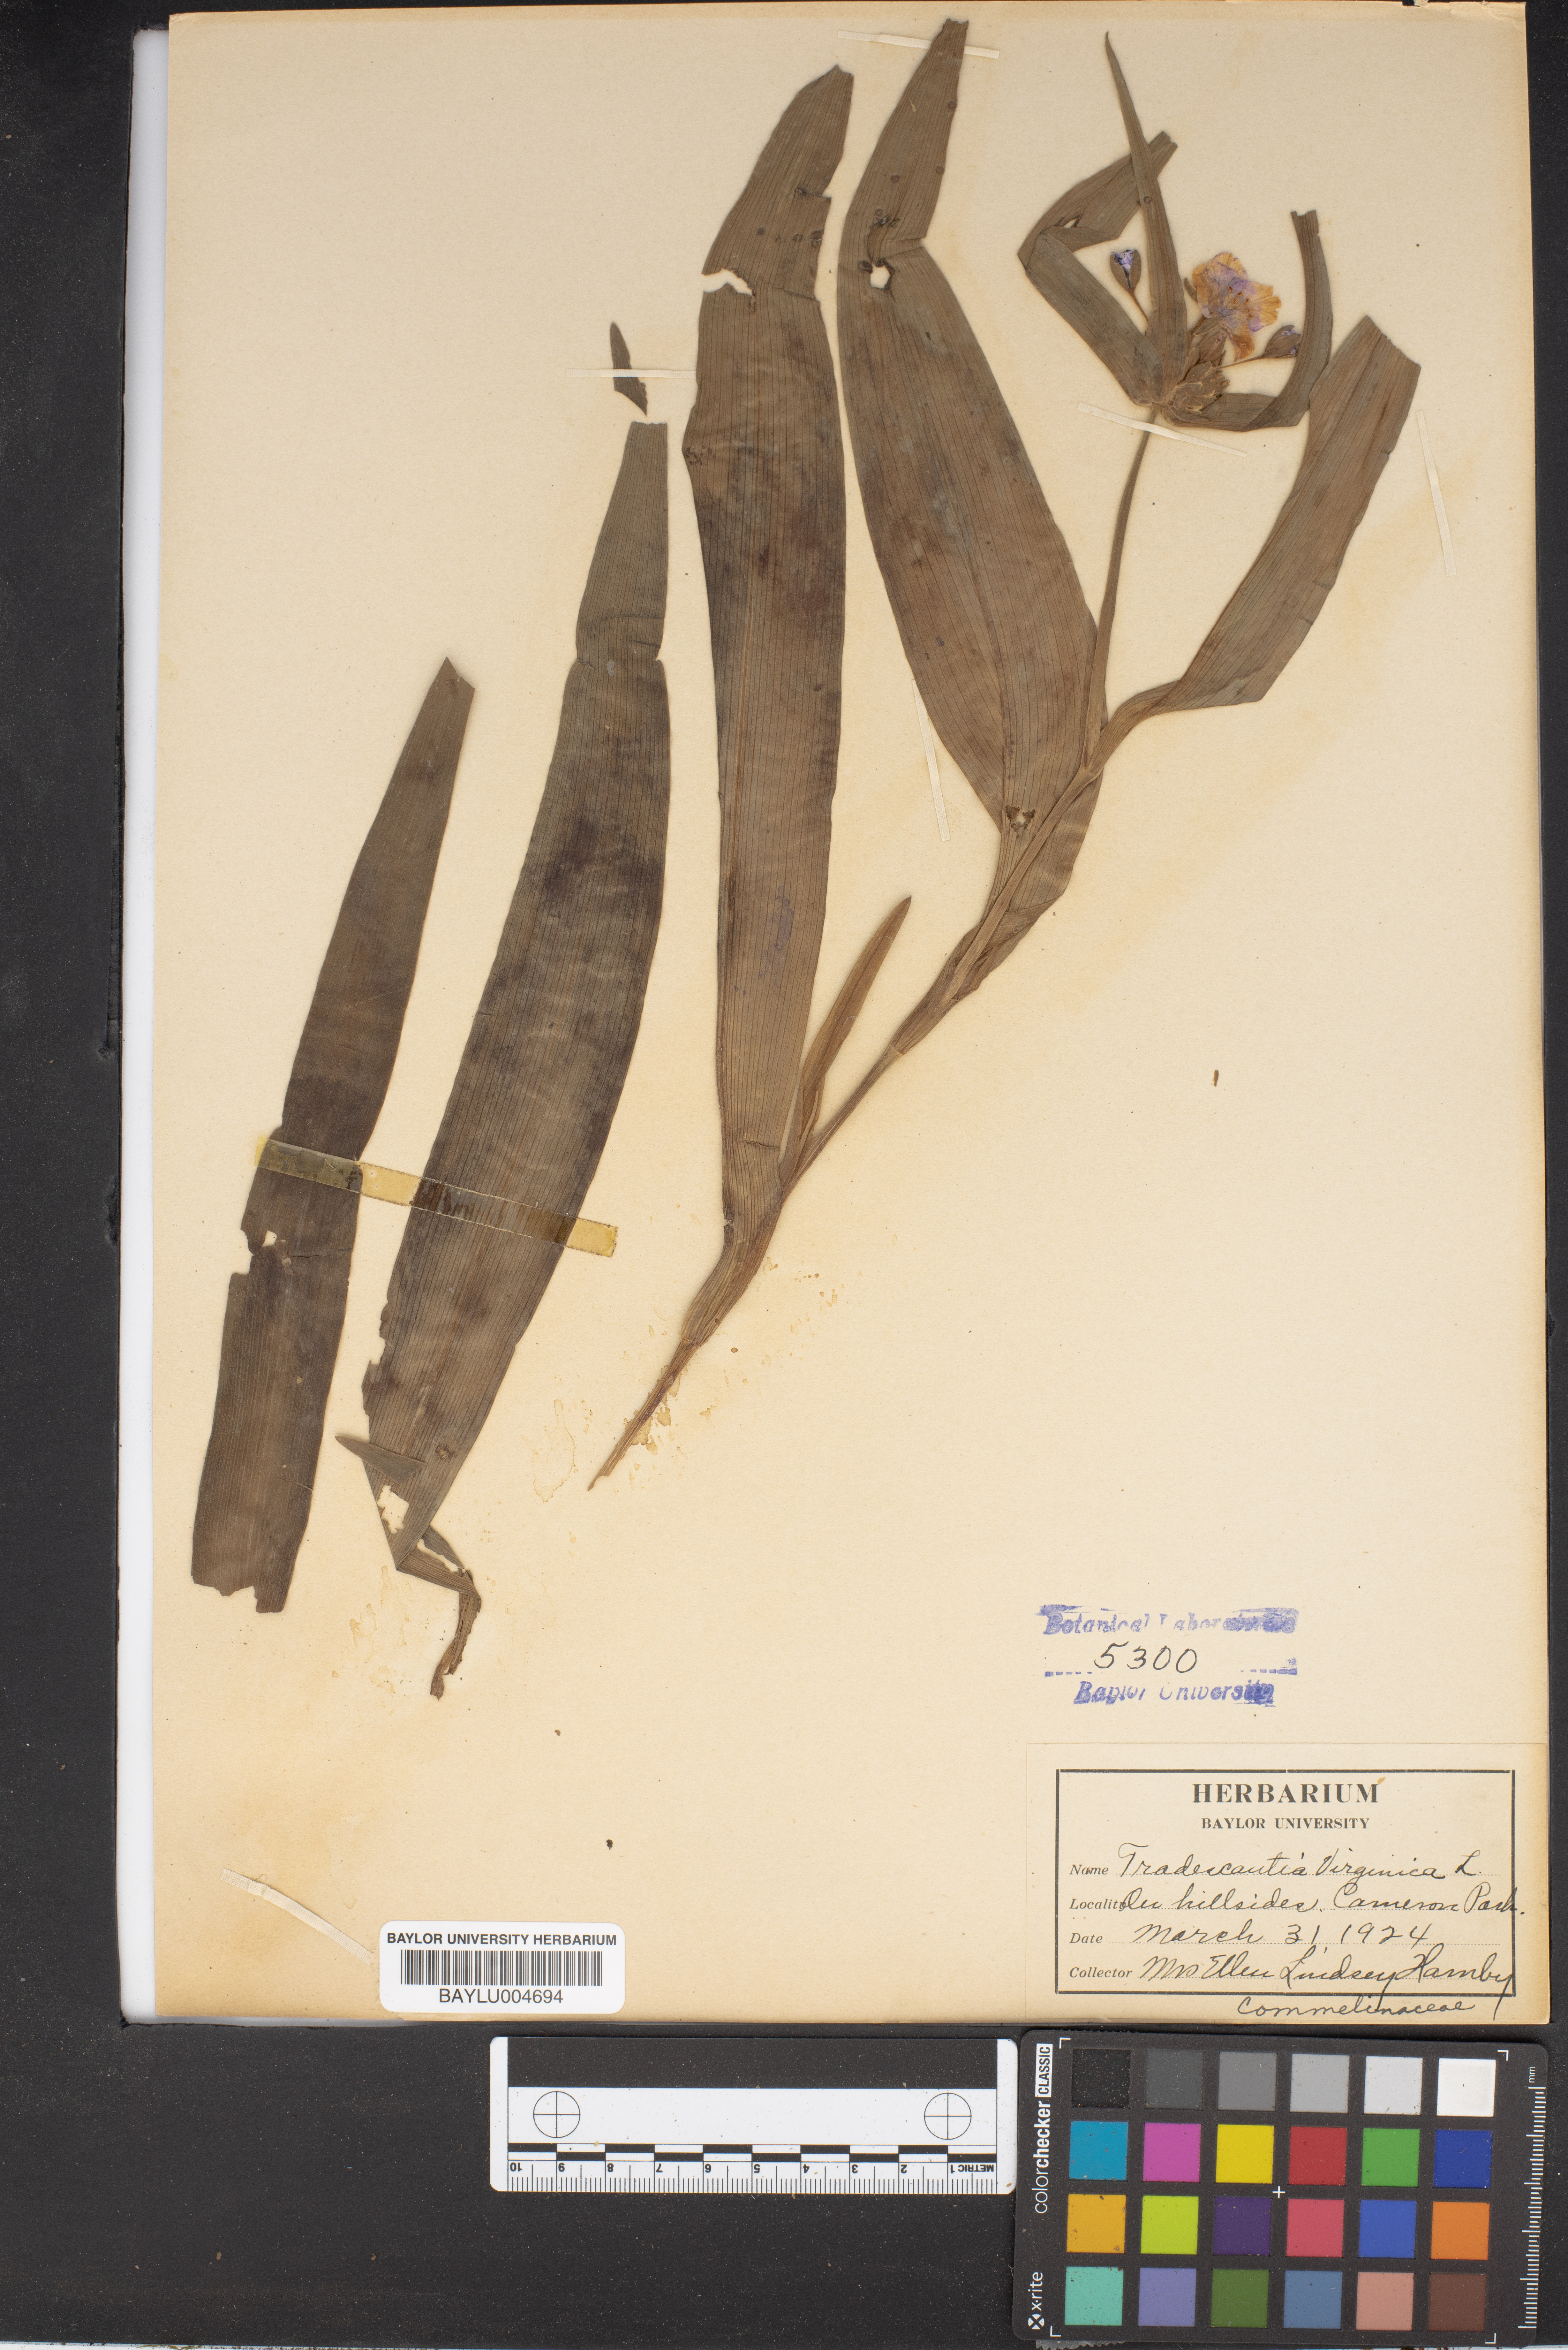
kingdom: Plantae
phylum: Tracheophyta
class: Liliopsida
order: Commelinales
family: Commelinaceae
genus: Callisia
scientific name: Callisia rosea
